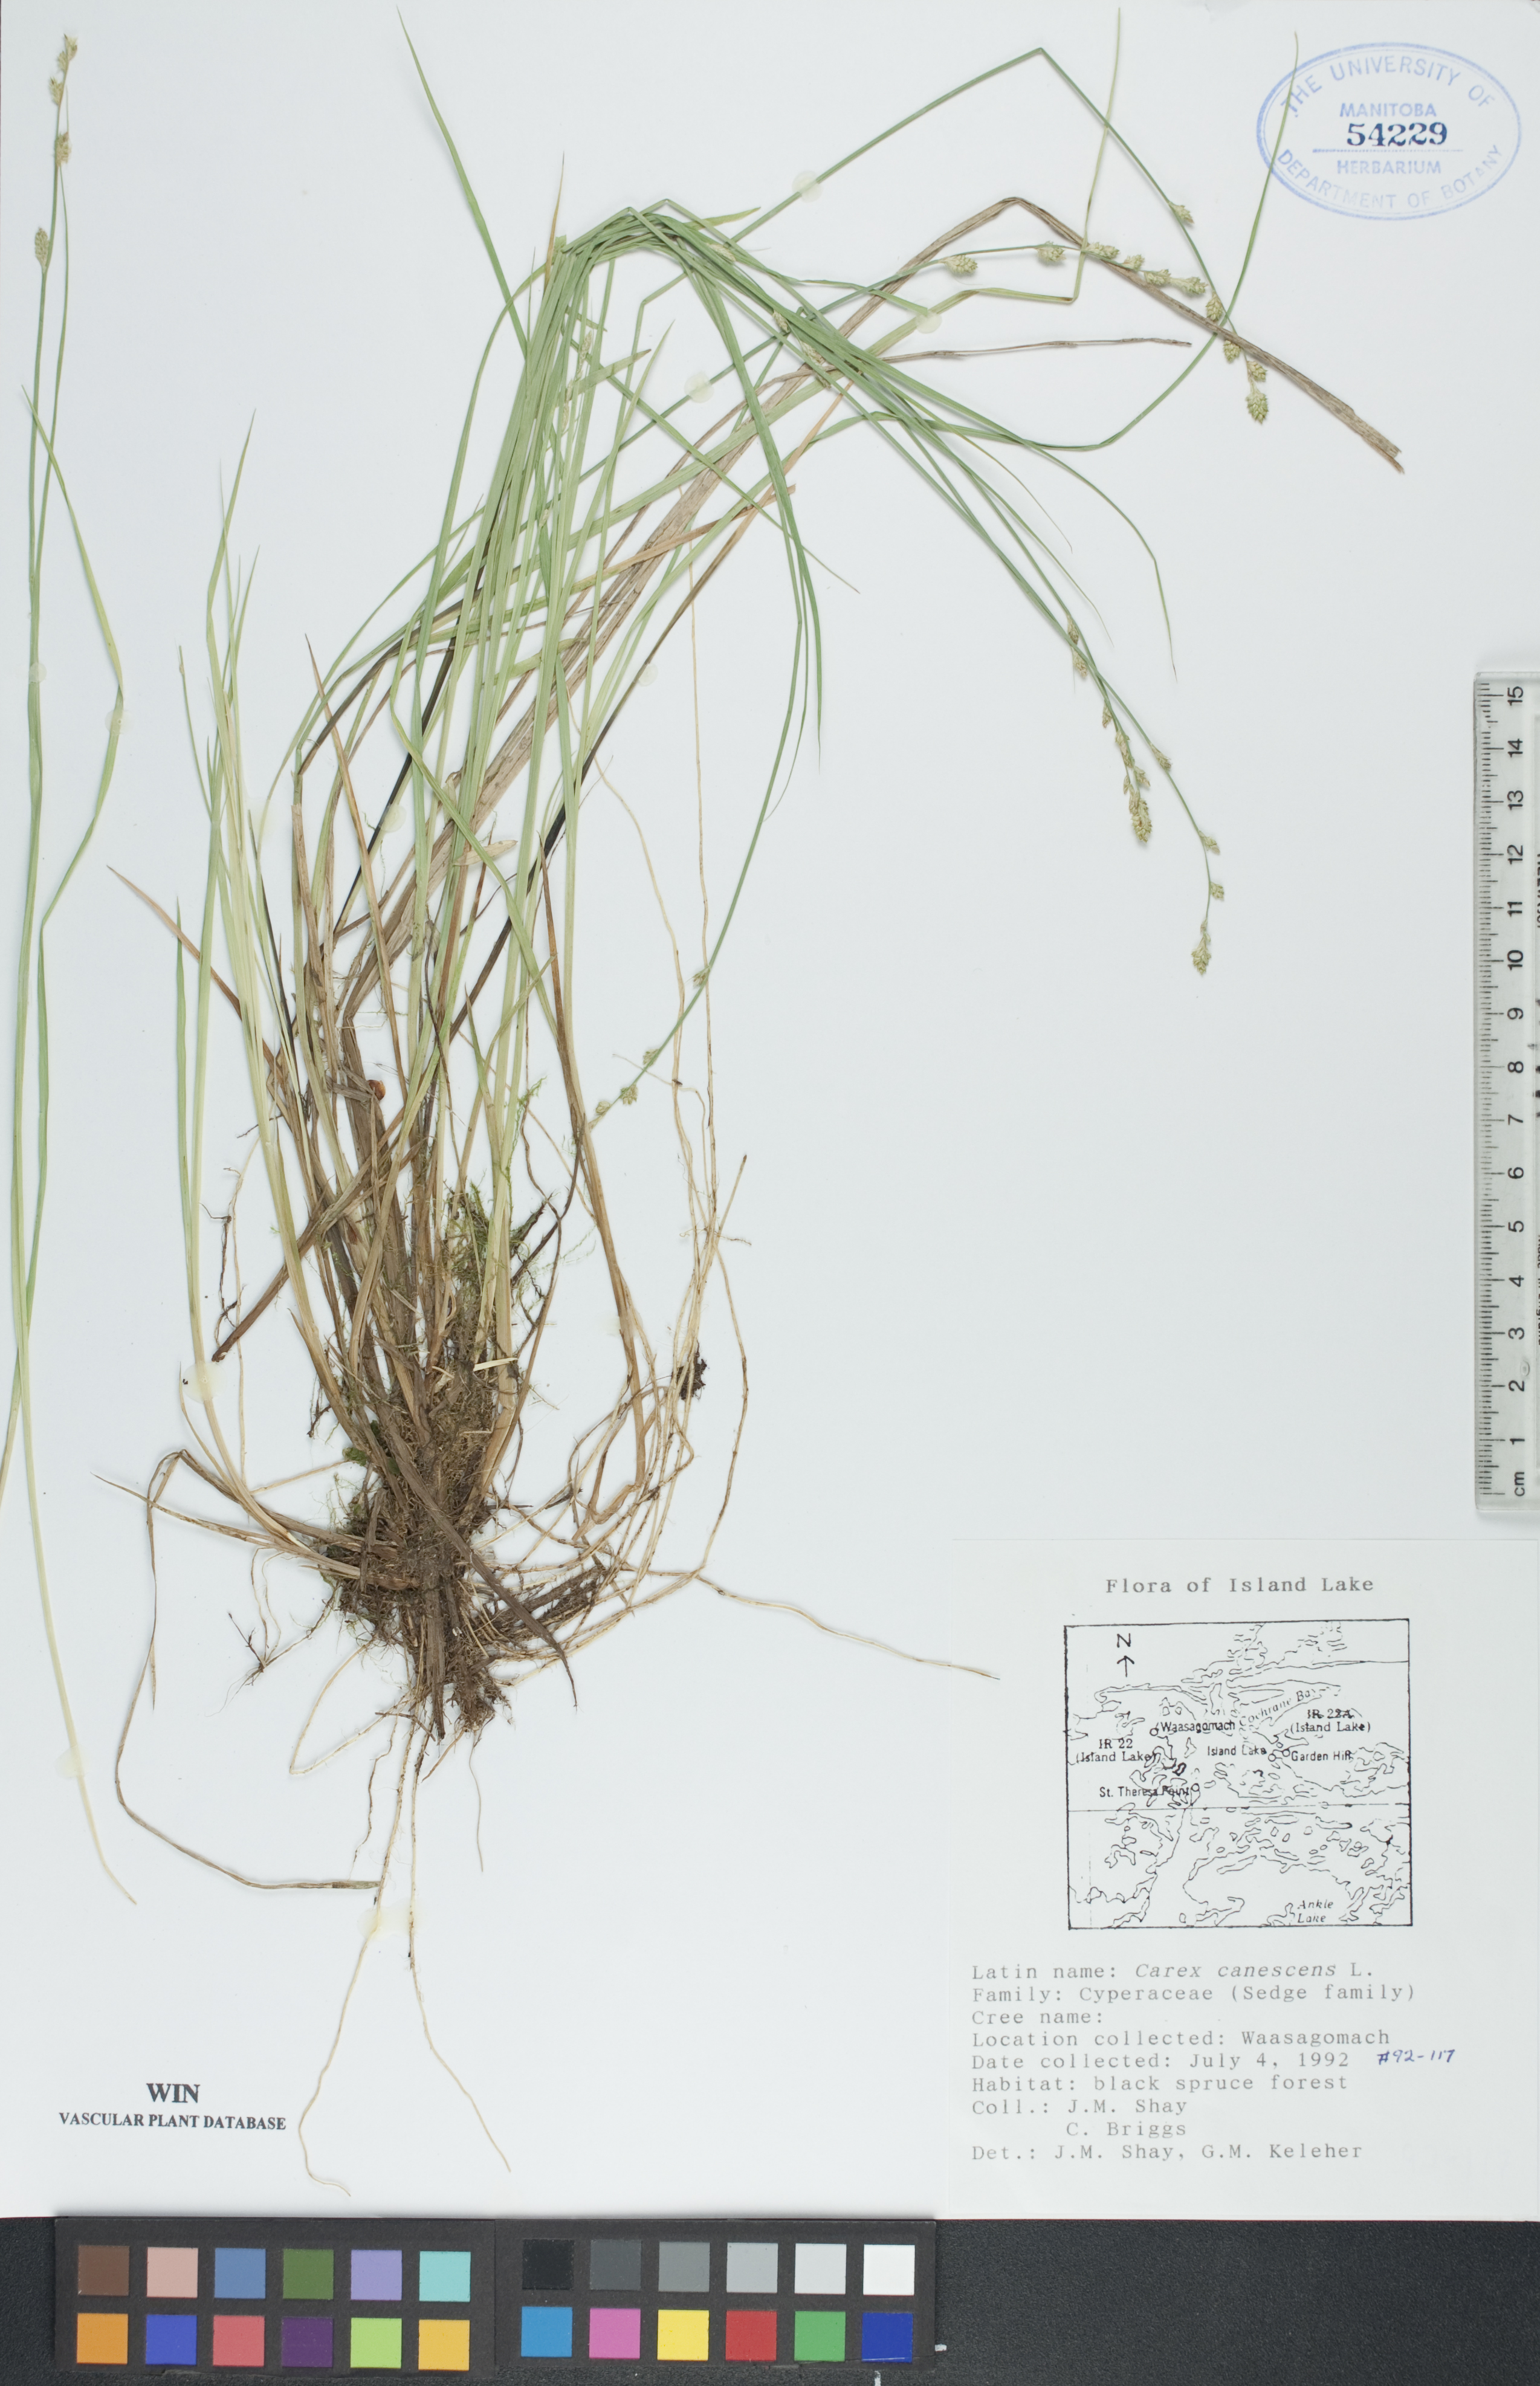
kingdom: Plantae
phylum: Tracheophyta
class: Liliopsida
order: Poales
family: Cyperaceae
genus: Carex
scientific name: Carex canescens
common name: White sedge
